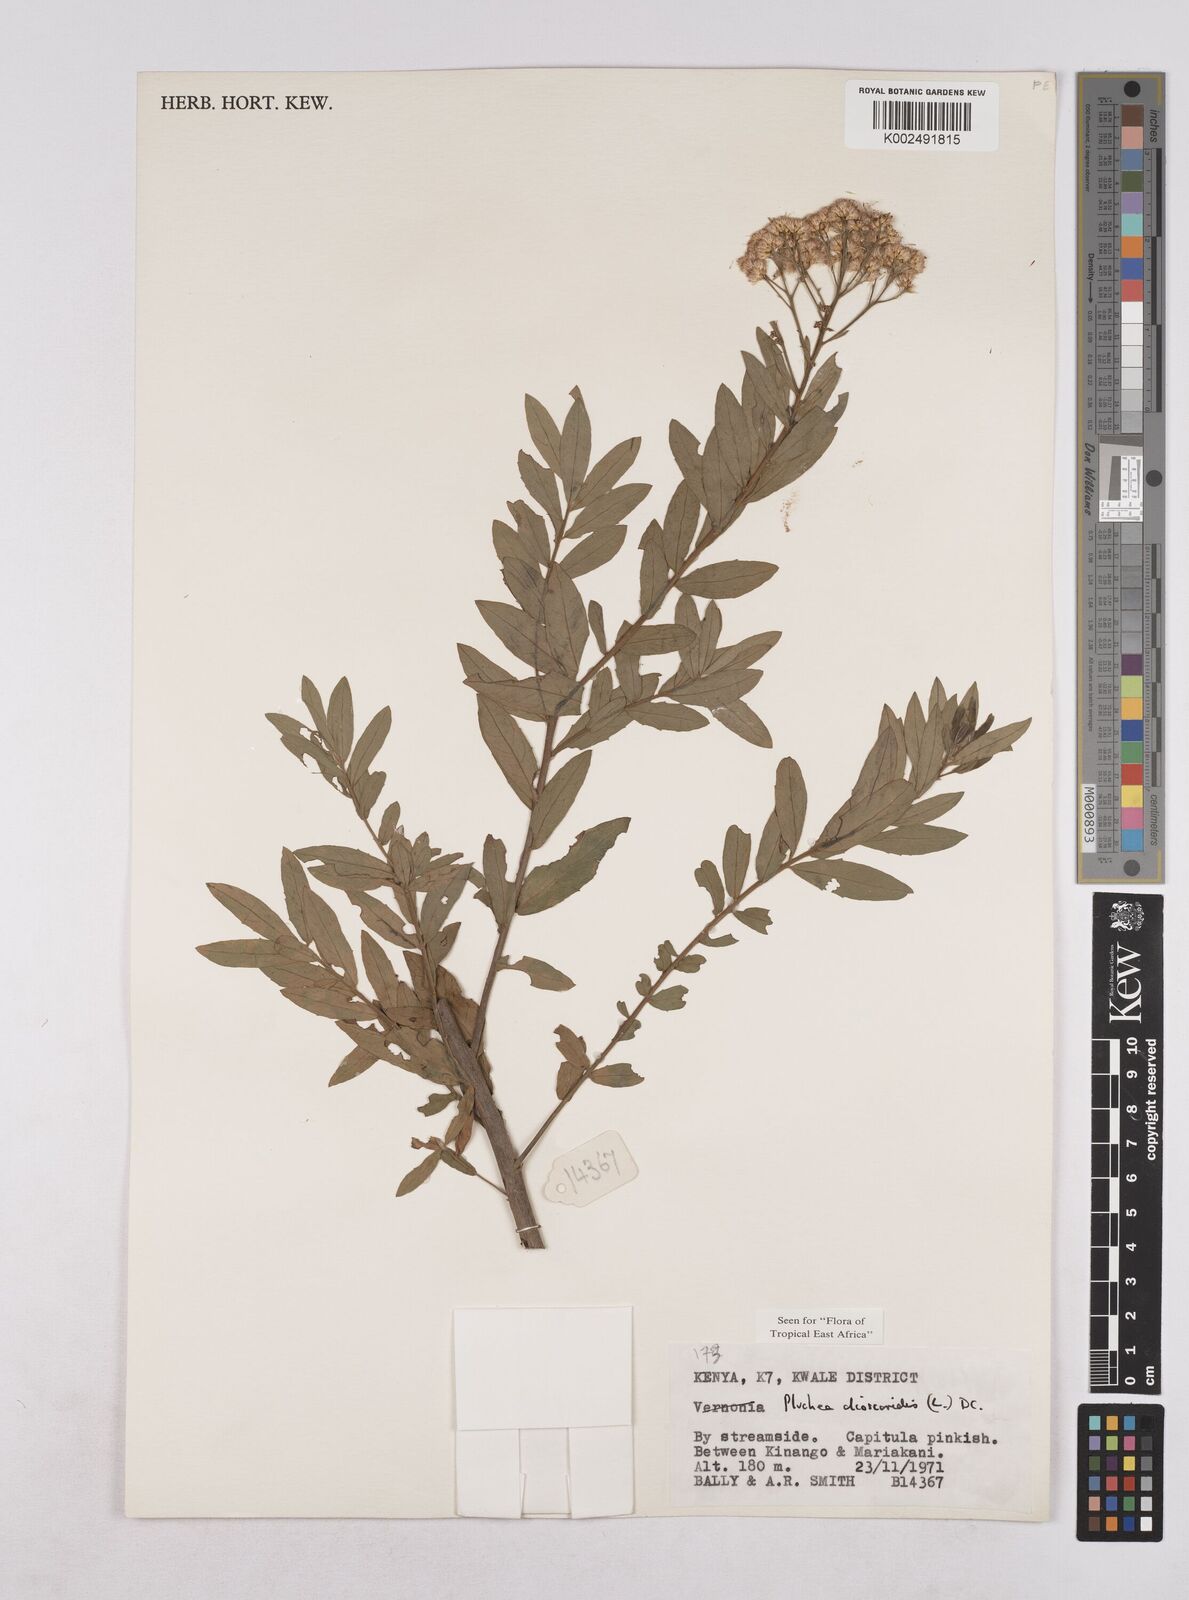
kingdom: Plantae
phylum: Tracheophyta
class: Magnoliopsida
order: Asterales
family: Asteraceae
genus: Pluchea
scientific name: Pluchea dioscoridis
